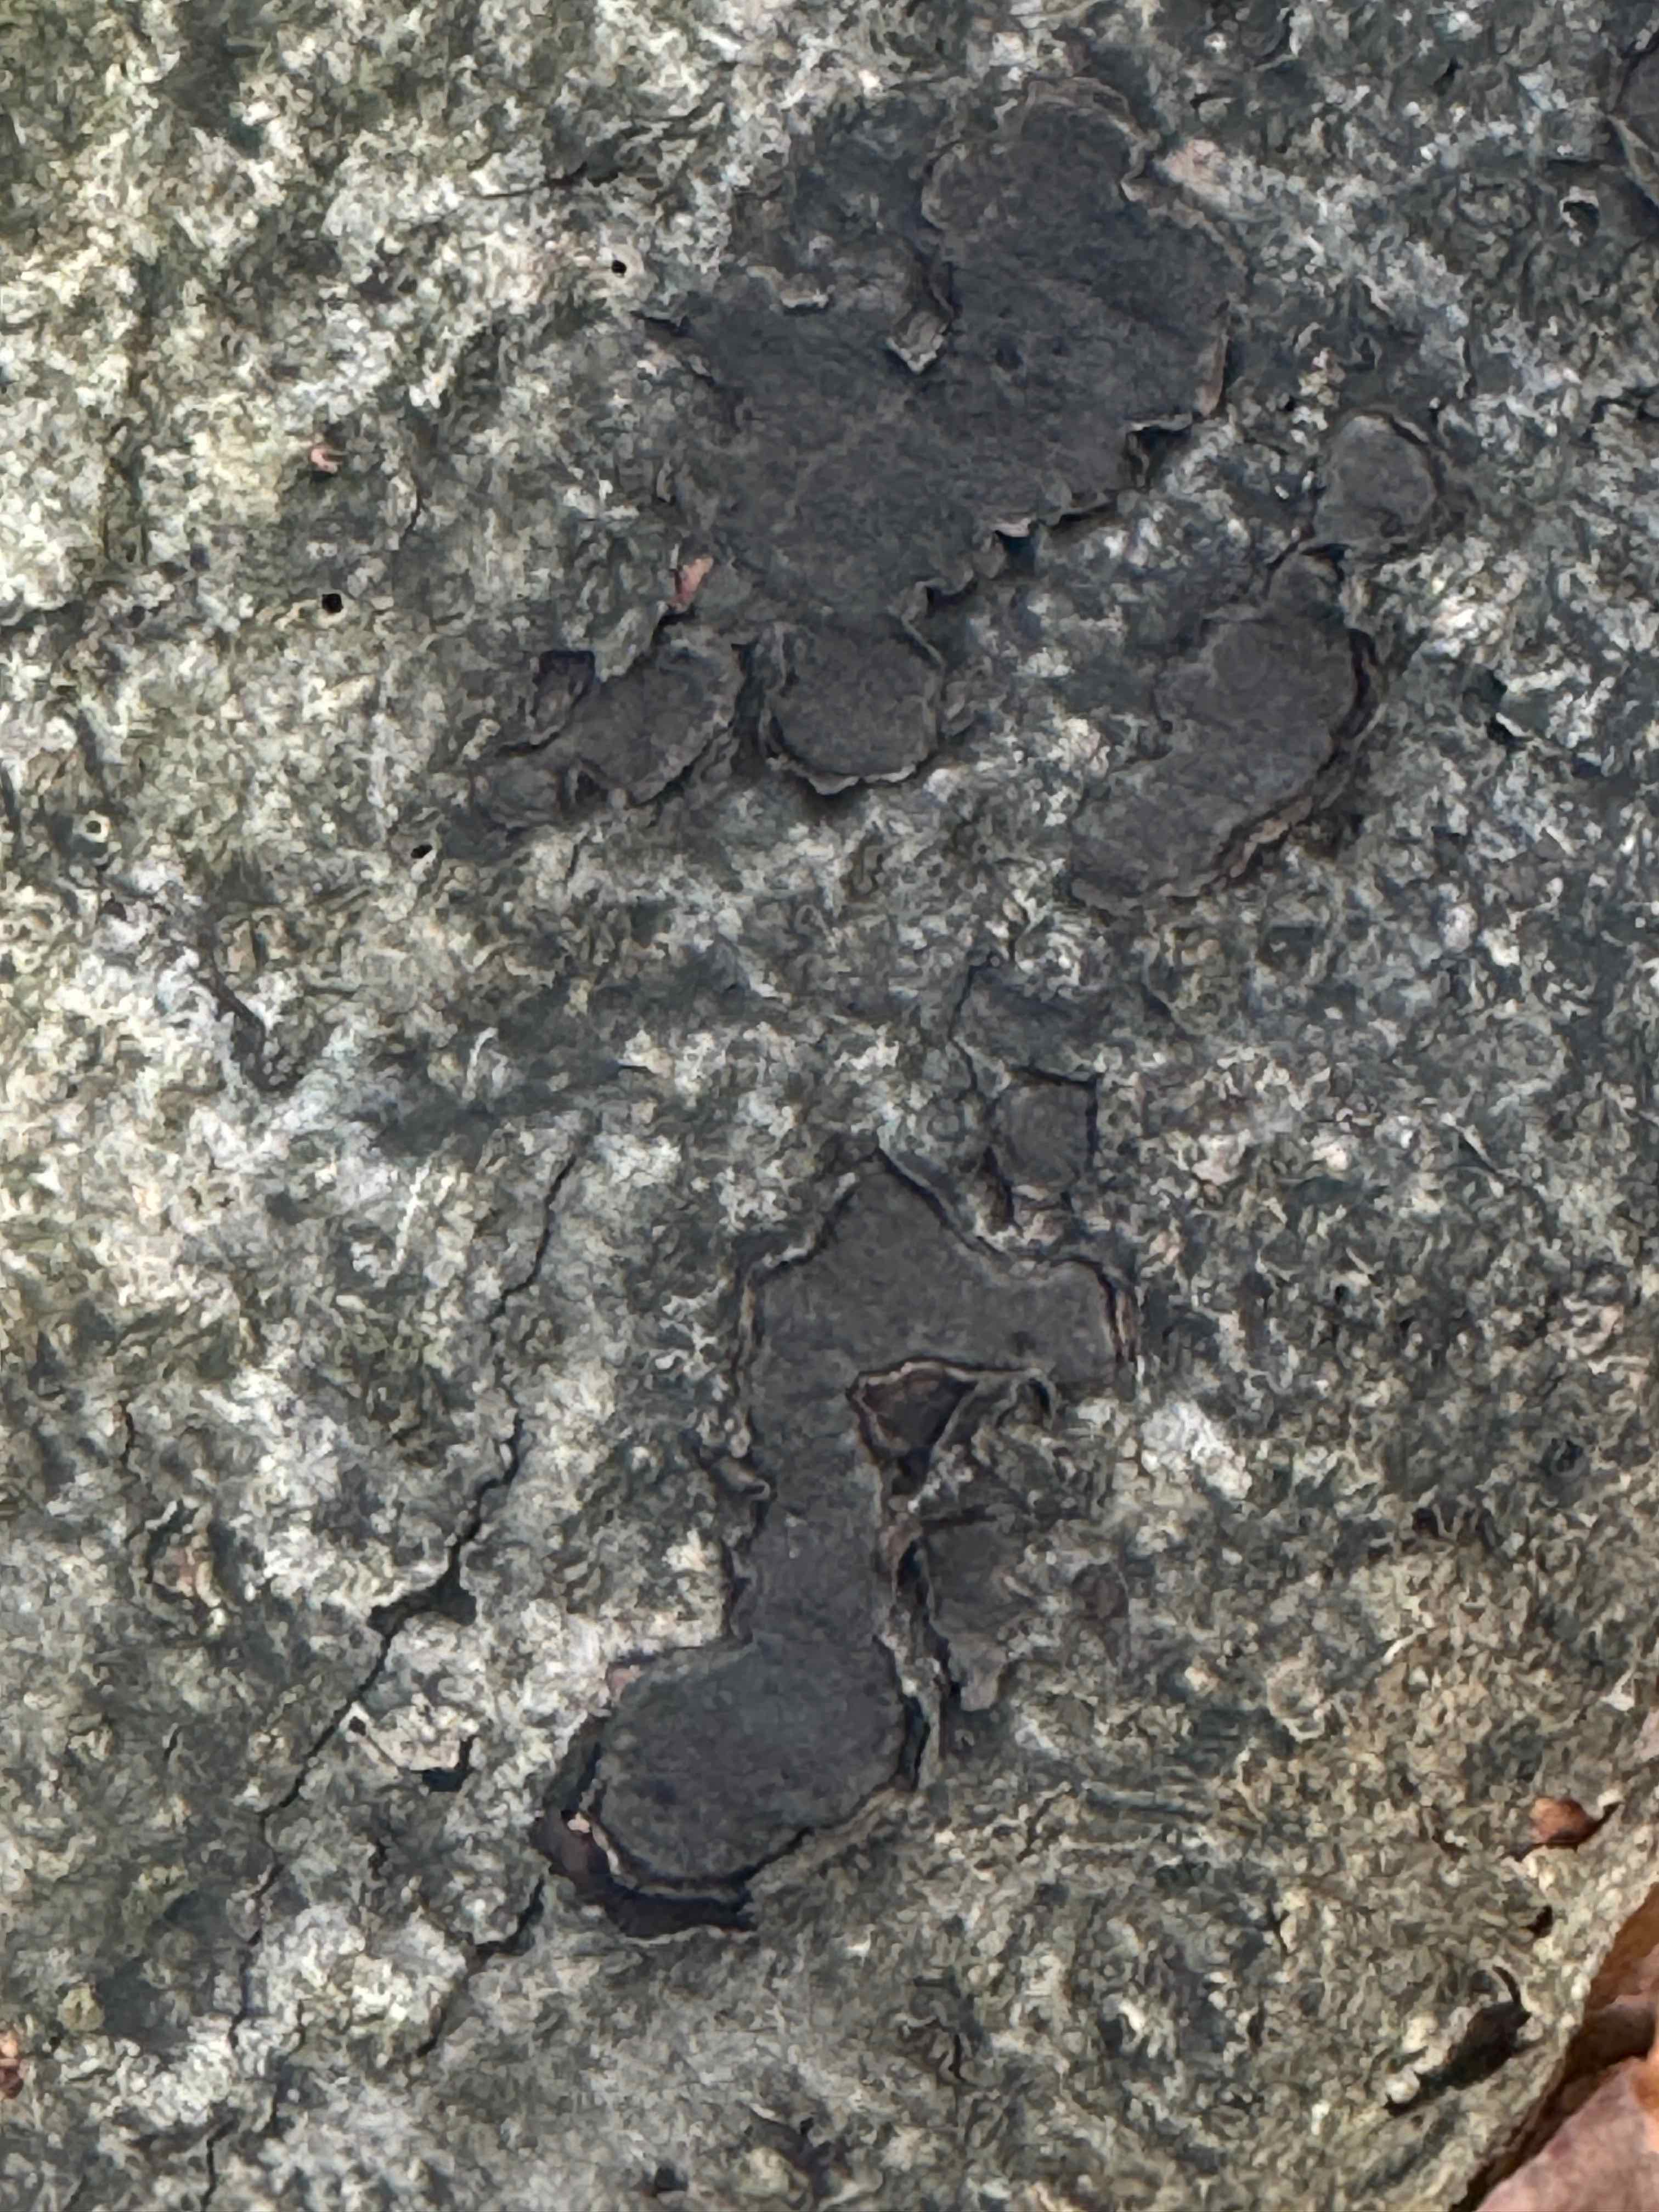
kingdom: Fungi
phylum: Ascomycota
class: Sordariomycetes
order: Xylariales
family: Graphostromataceae
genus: Biscogniauxia
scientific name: Biscogniauxia nummularia
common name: bøge-kulskive
